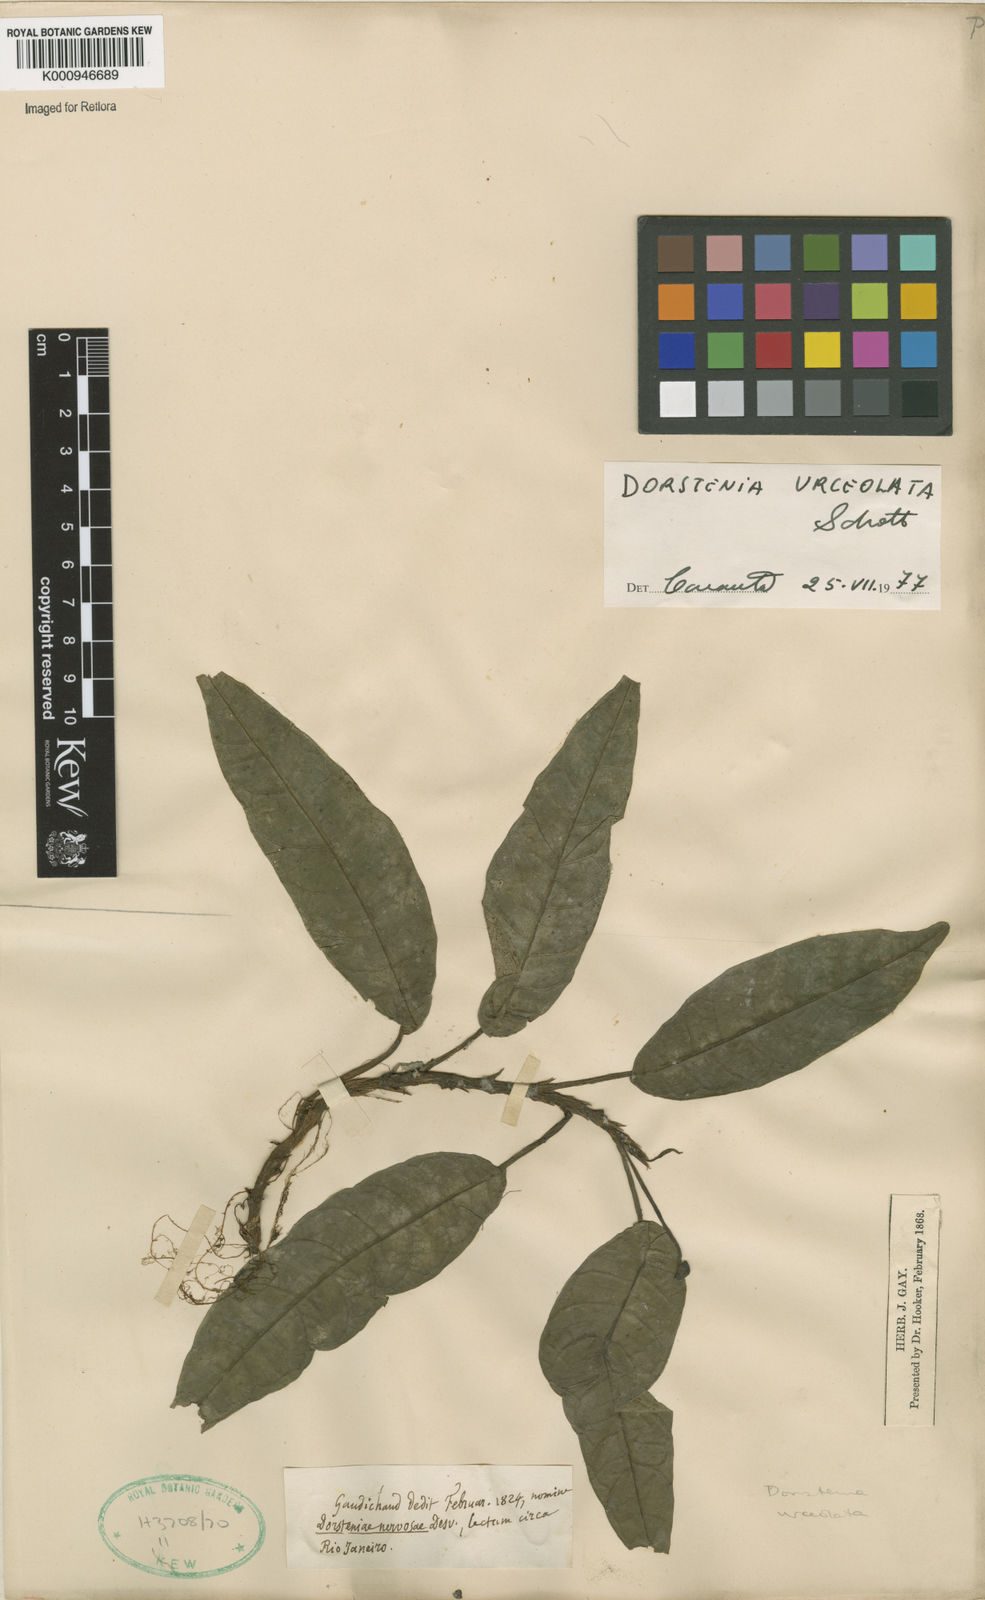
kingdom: Plantae
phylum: Tracheophyta
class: Magnoliopsida
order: Rosales
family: Moraceae
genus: Dorstenia
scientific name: Dorstenia urceolata
